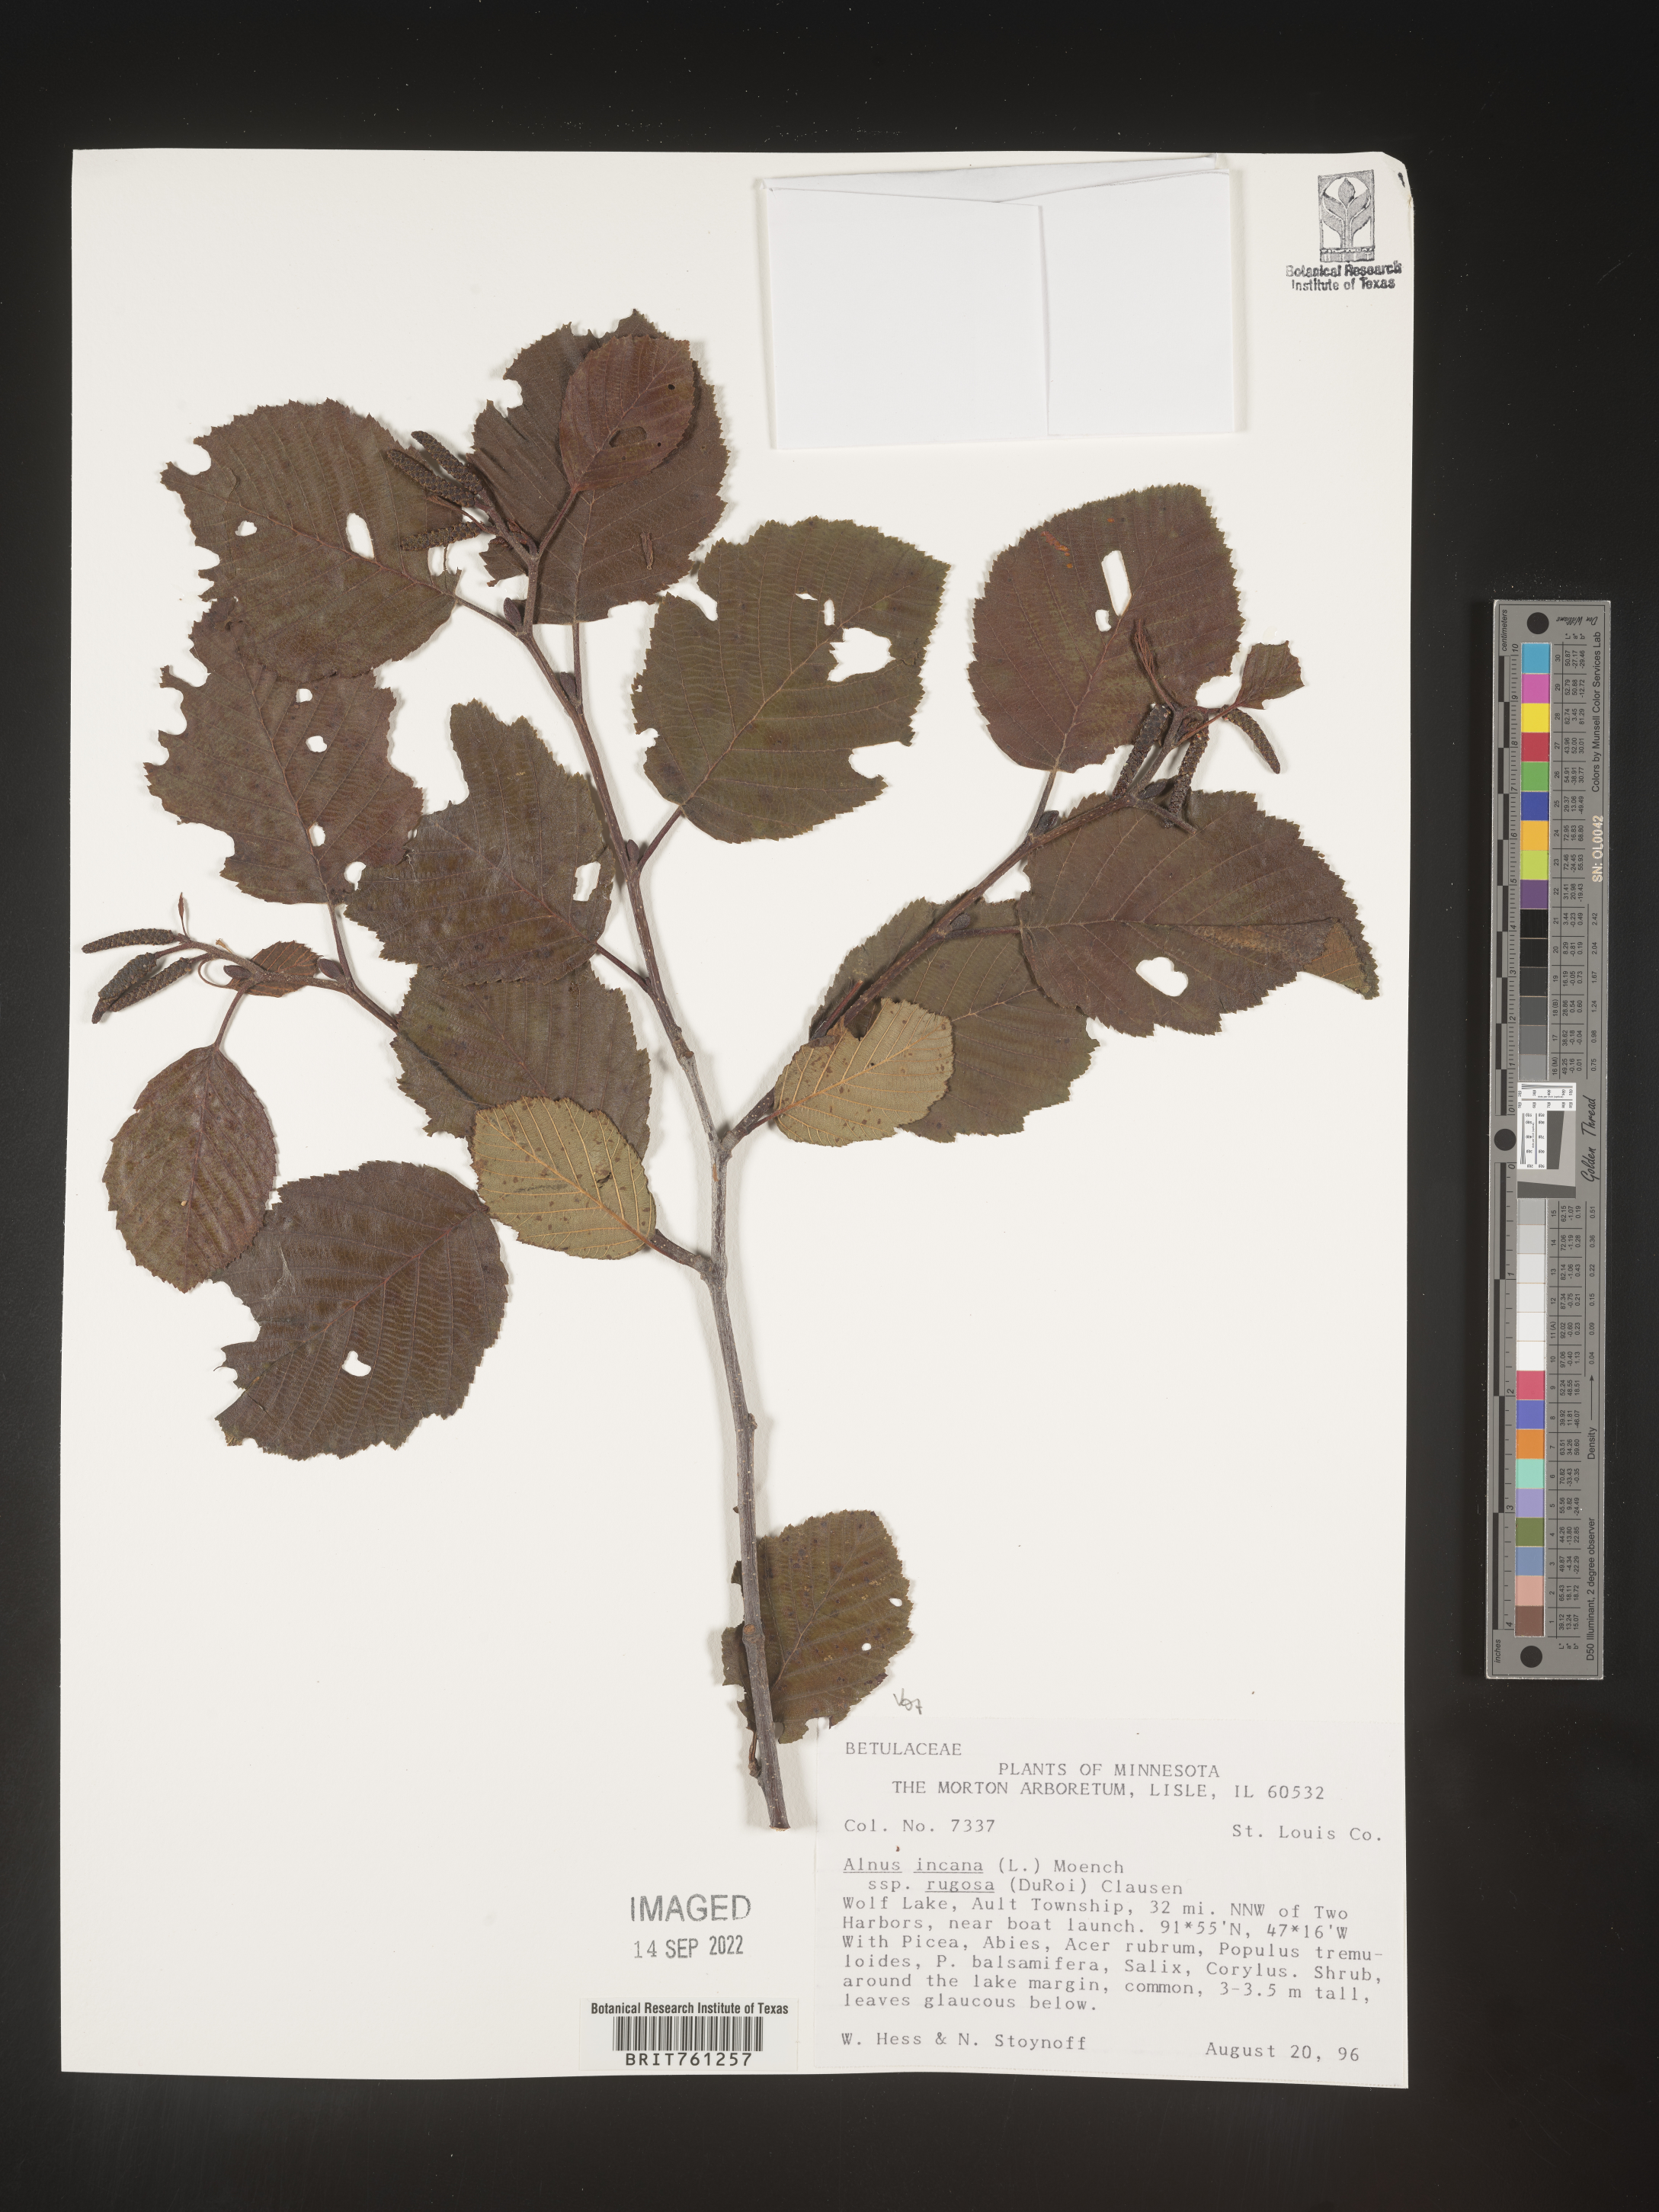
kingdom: Plantae
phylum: Tracheophyta
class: Magnoliopsida
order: Fagales
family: Betulaceae
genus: Alnus
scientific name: Alnus incana
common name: Grey alder
